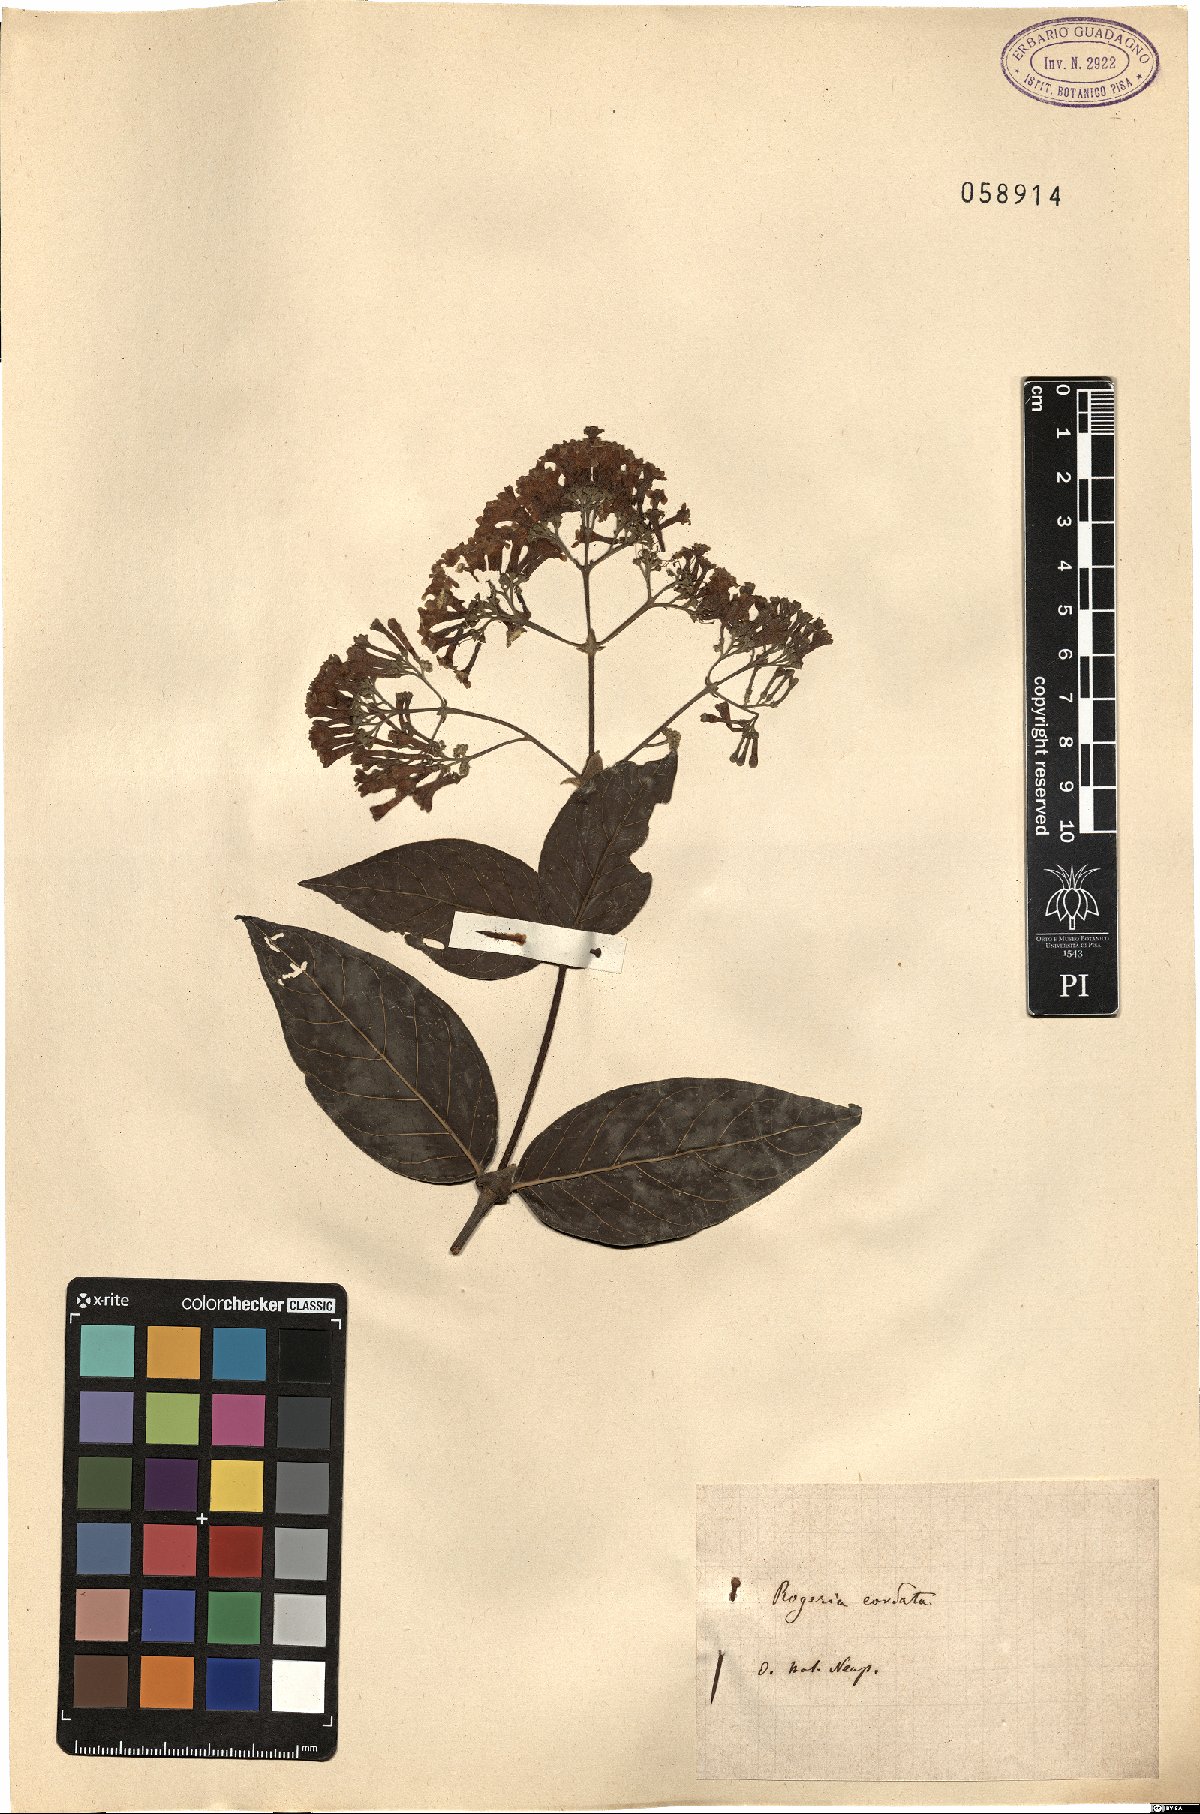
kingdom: Plantae
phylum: Tracheophyta
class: Magnoliopsida
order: Lamiales
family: Pedaliaceae
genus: Rogeria
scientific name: Rogeria
